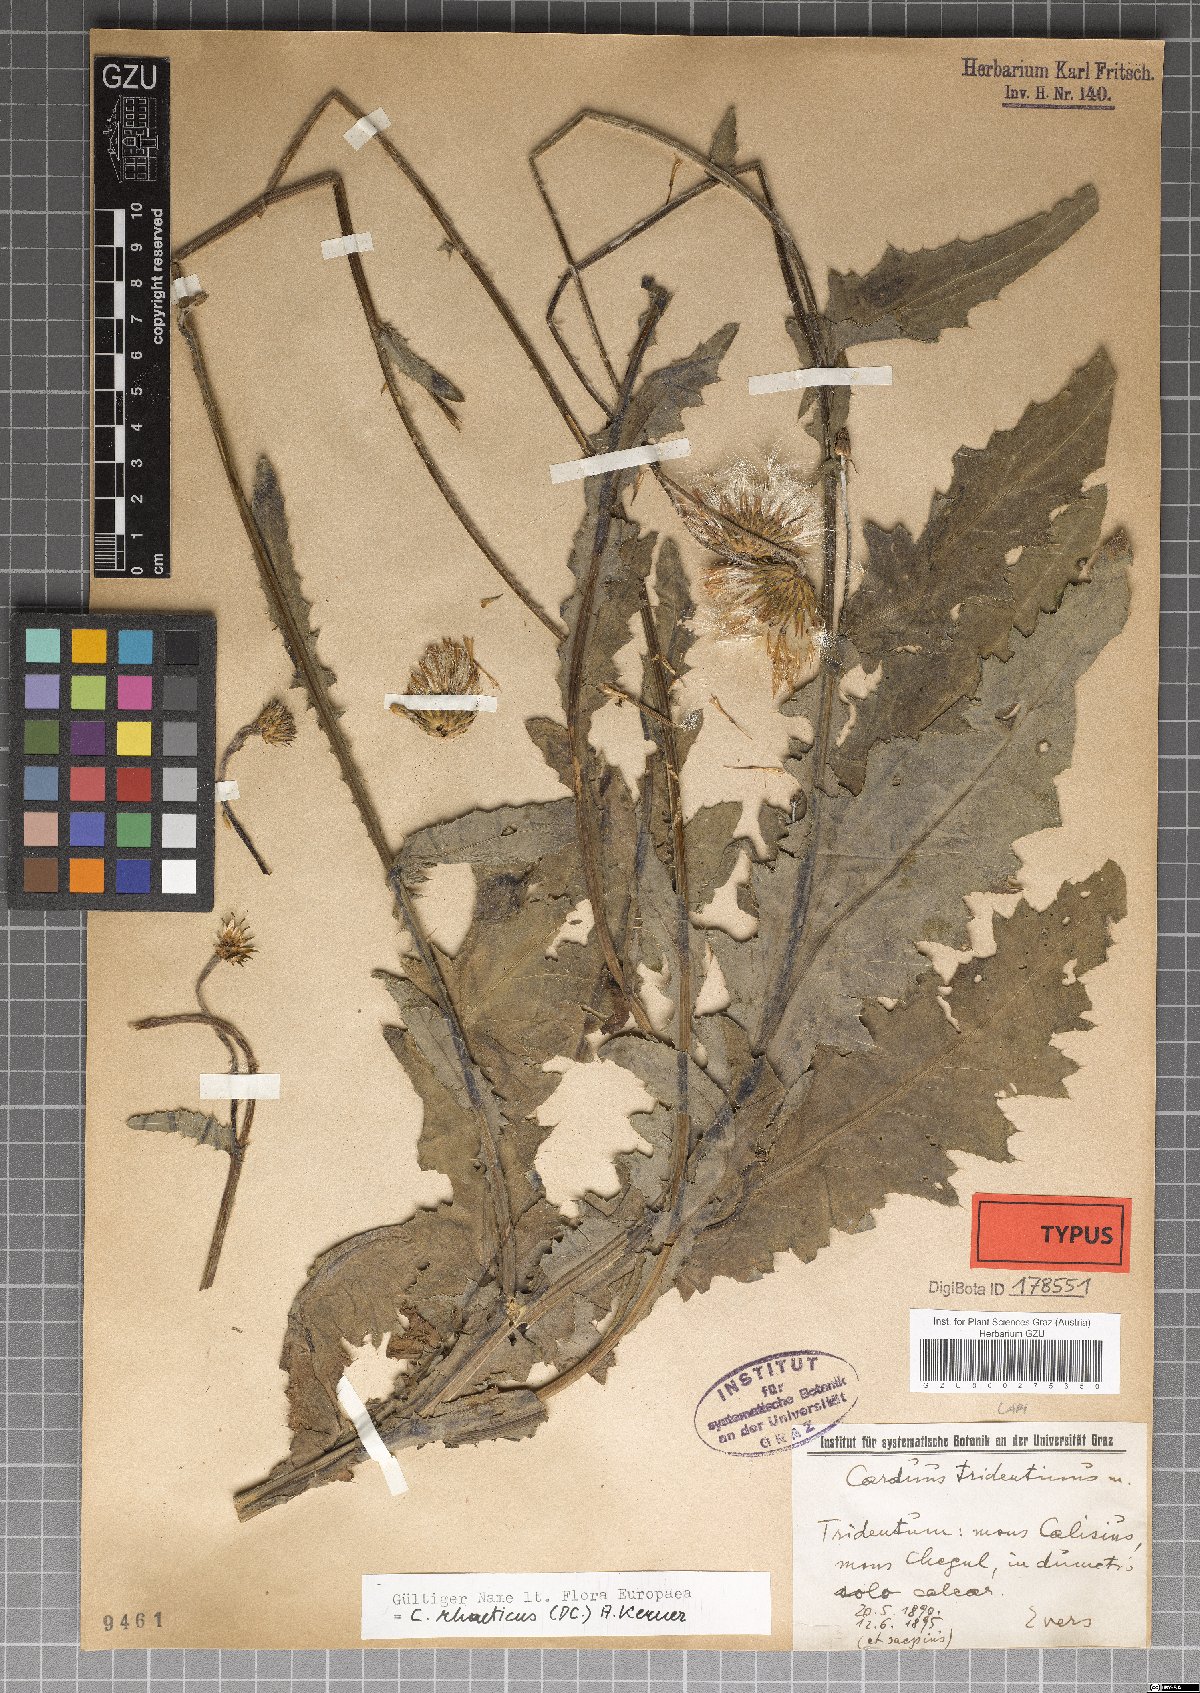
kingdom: Plantae
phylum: Tracheophyta
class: Magnoliopsida
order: Asterales
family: Asteraceae
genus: Carduus
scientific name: Carduus defloratus
